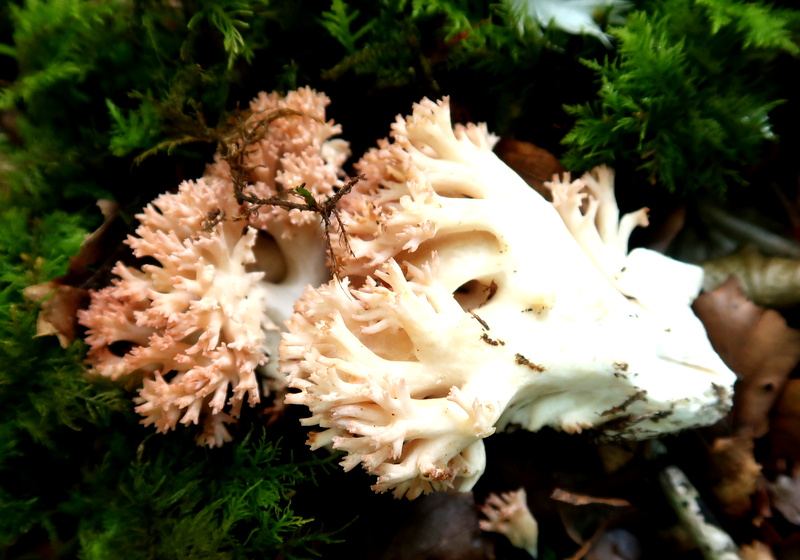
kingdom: Fungi
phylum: Basidiomycota
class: Agaricomycetes
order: Gomphales
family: Gomphaceae
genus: Ramaria
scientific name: Ramaria botrytis
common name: drue-koralsvamp
